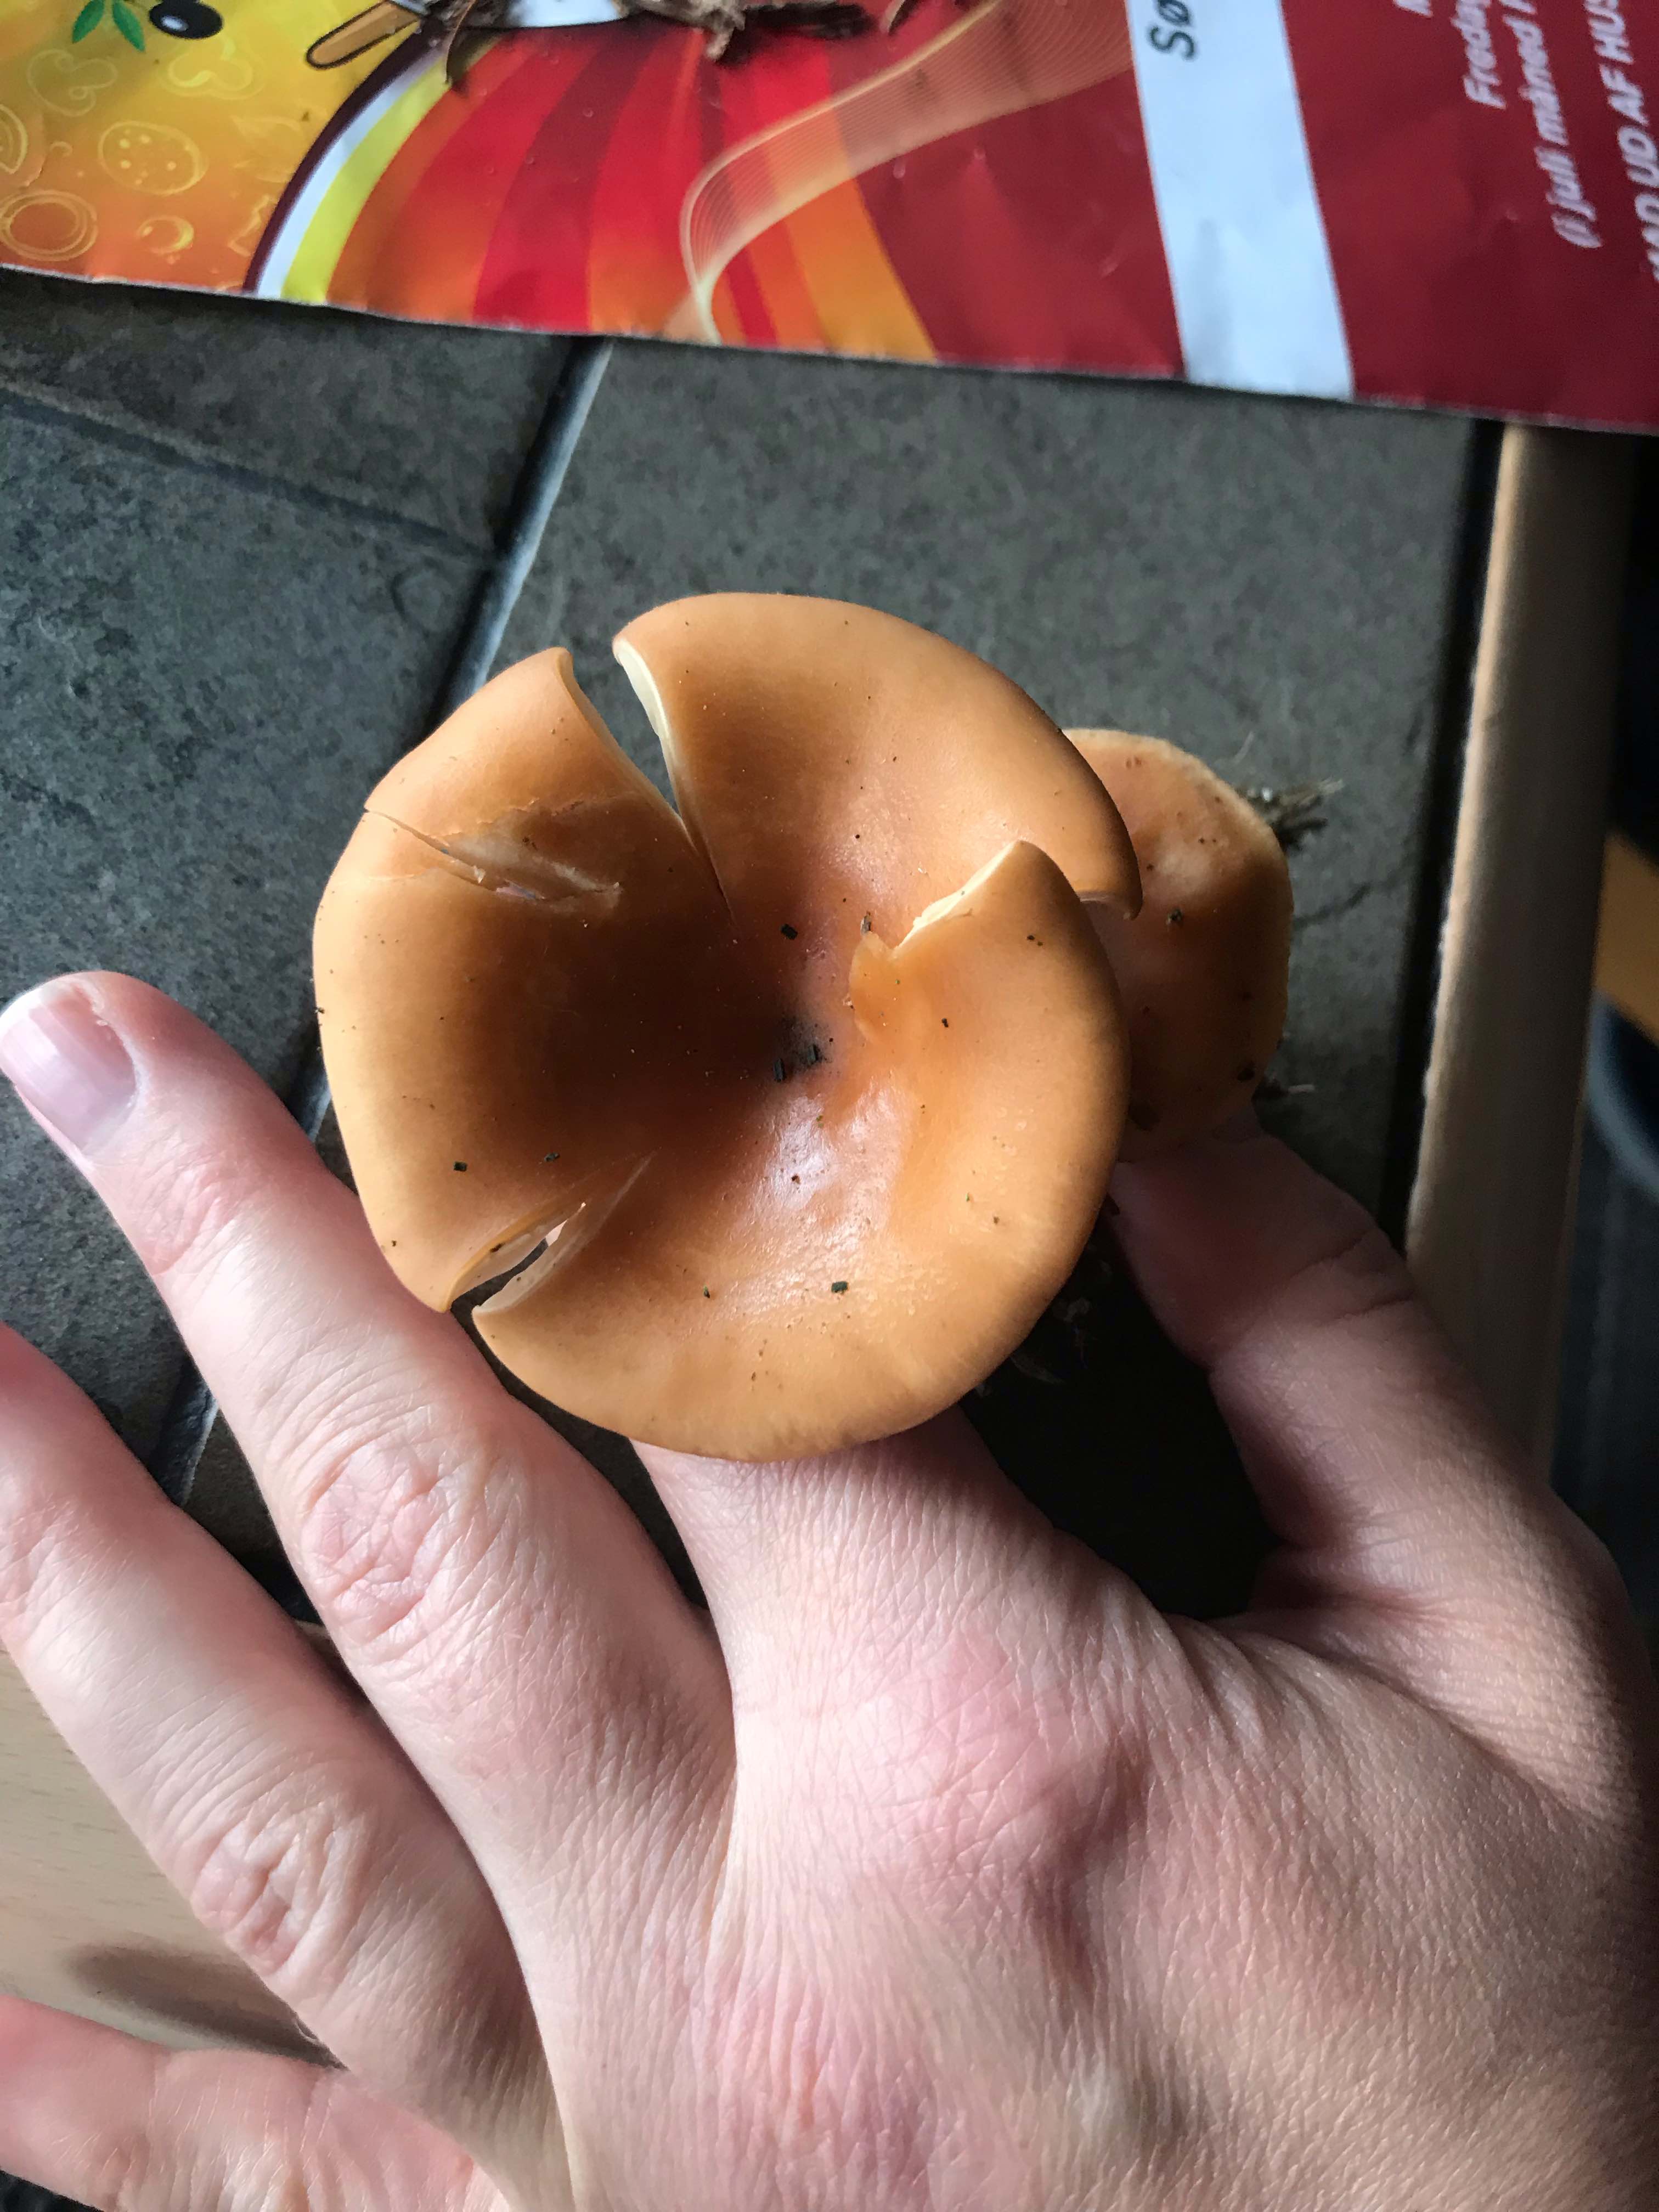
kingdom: Fungi
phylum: Basidiomycota
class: Agaricomycetes
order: Agaricales
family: Tricholomataceae
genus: Paralepista
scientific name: Paralepista flaccida
